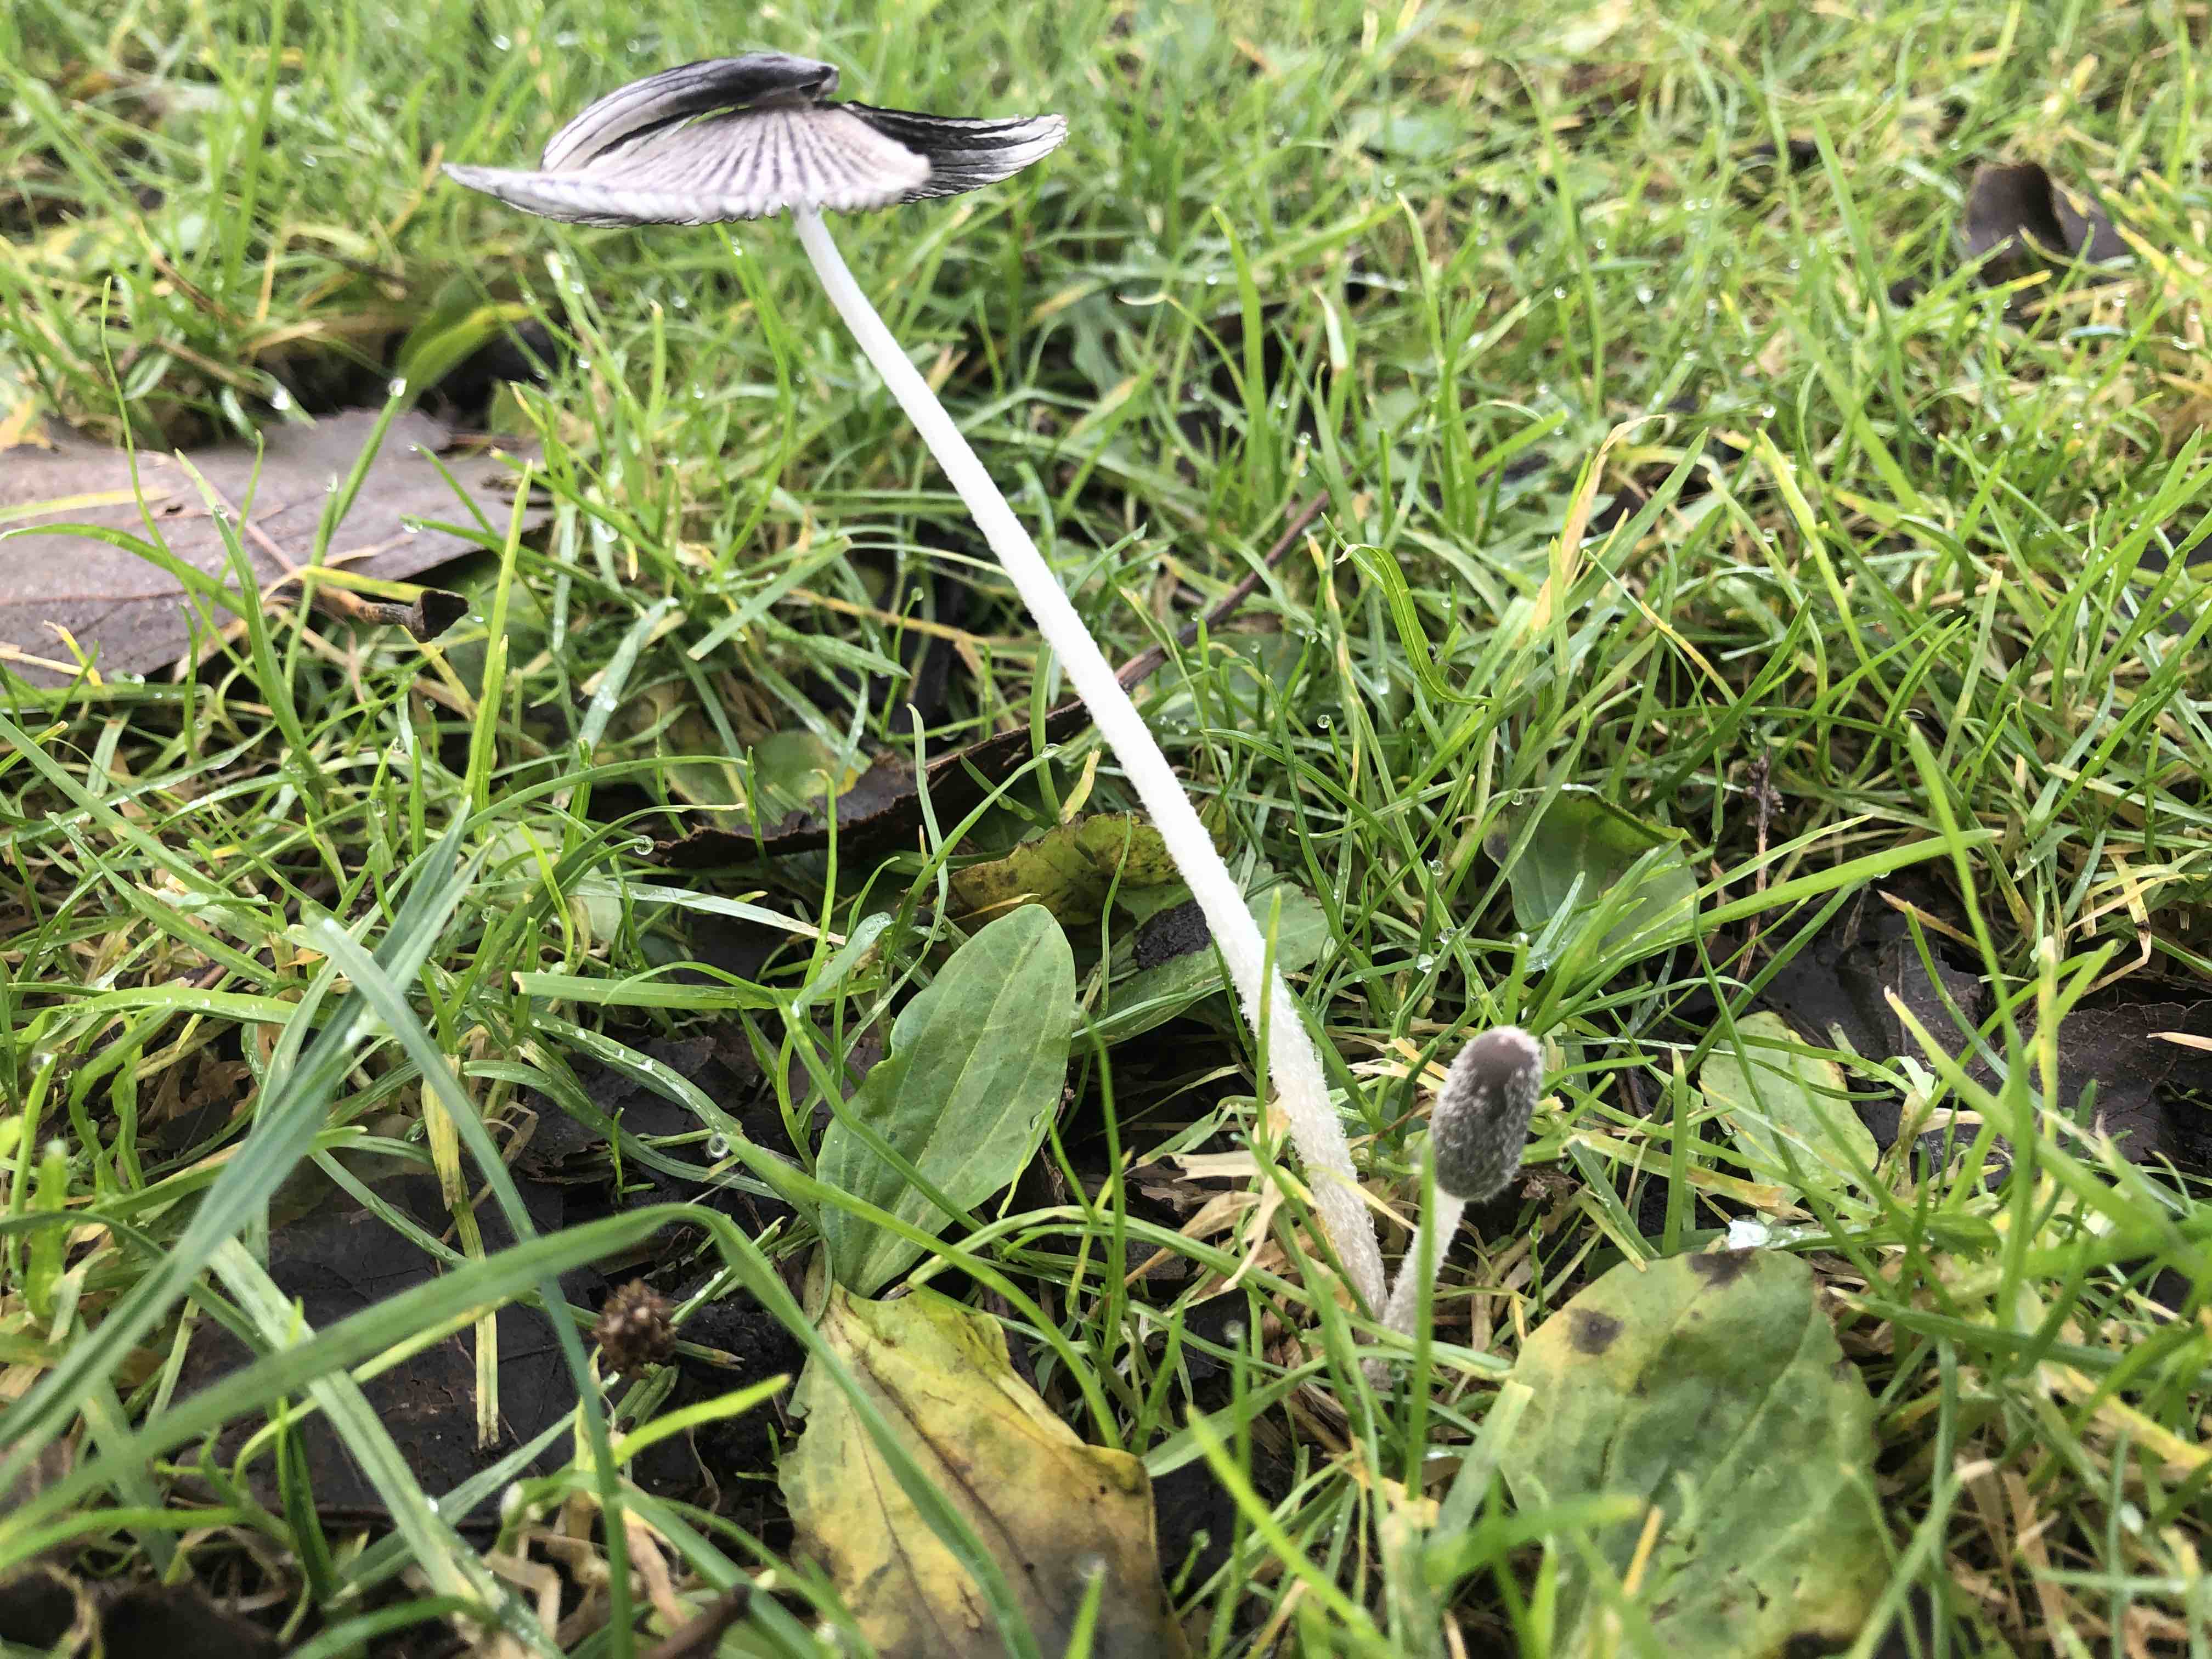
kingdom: Fungi
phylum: Basidiomycota
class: Agaricomycetes
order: Agaricales
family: Psathyrellaceae
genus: Coprinopsis
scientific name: Coprinopsis lagopus
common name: dunstokket blækhat
